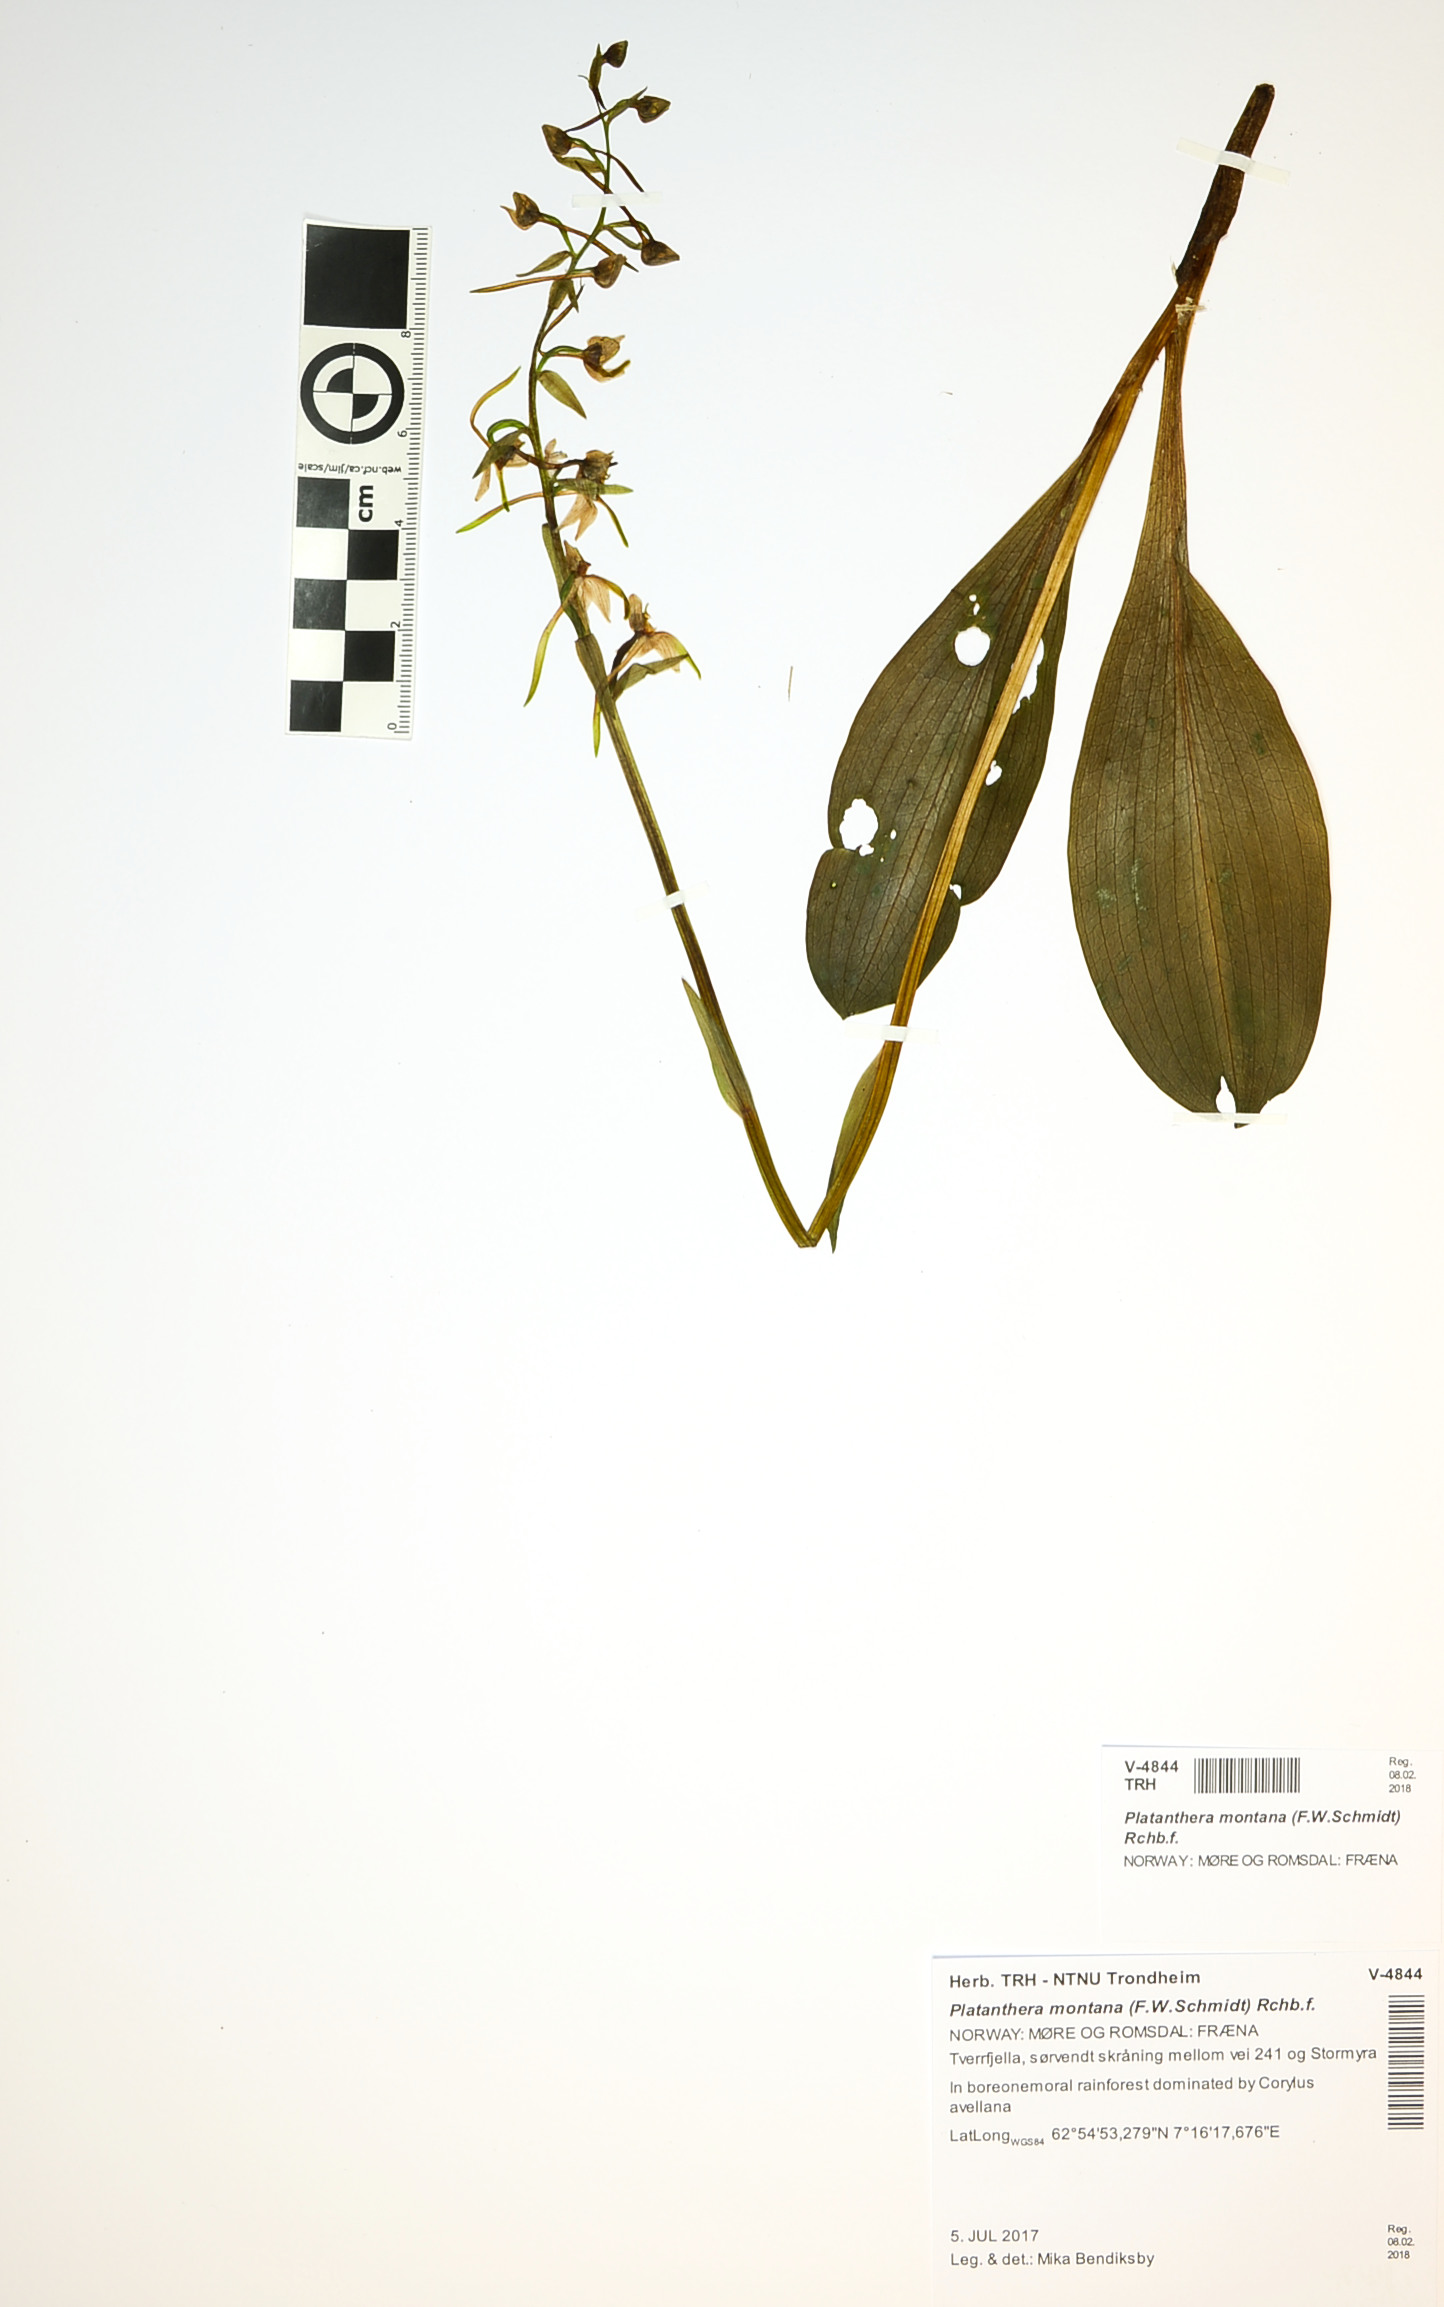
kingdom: Plantae
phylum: Tracheophyta
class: Liliopsida
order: Asparagales
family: Orchidaceae
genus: Platanthera
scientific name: Platanthera chlorantha
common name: Greater butterfly-orchid
